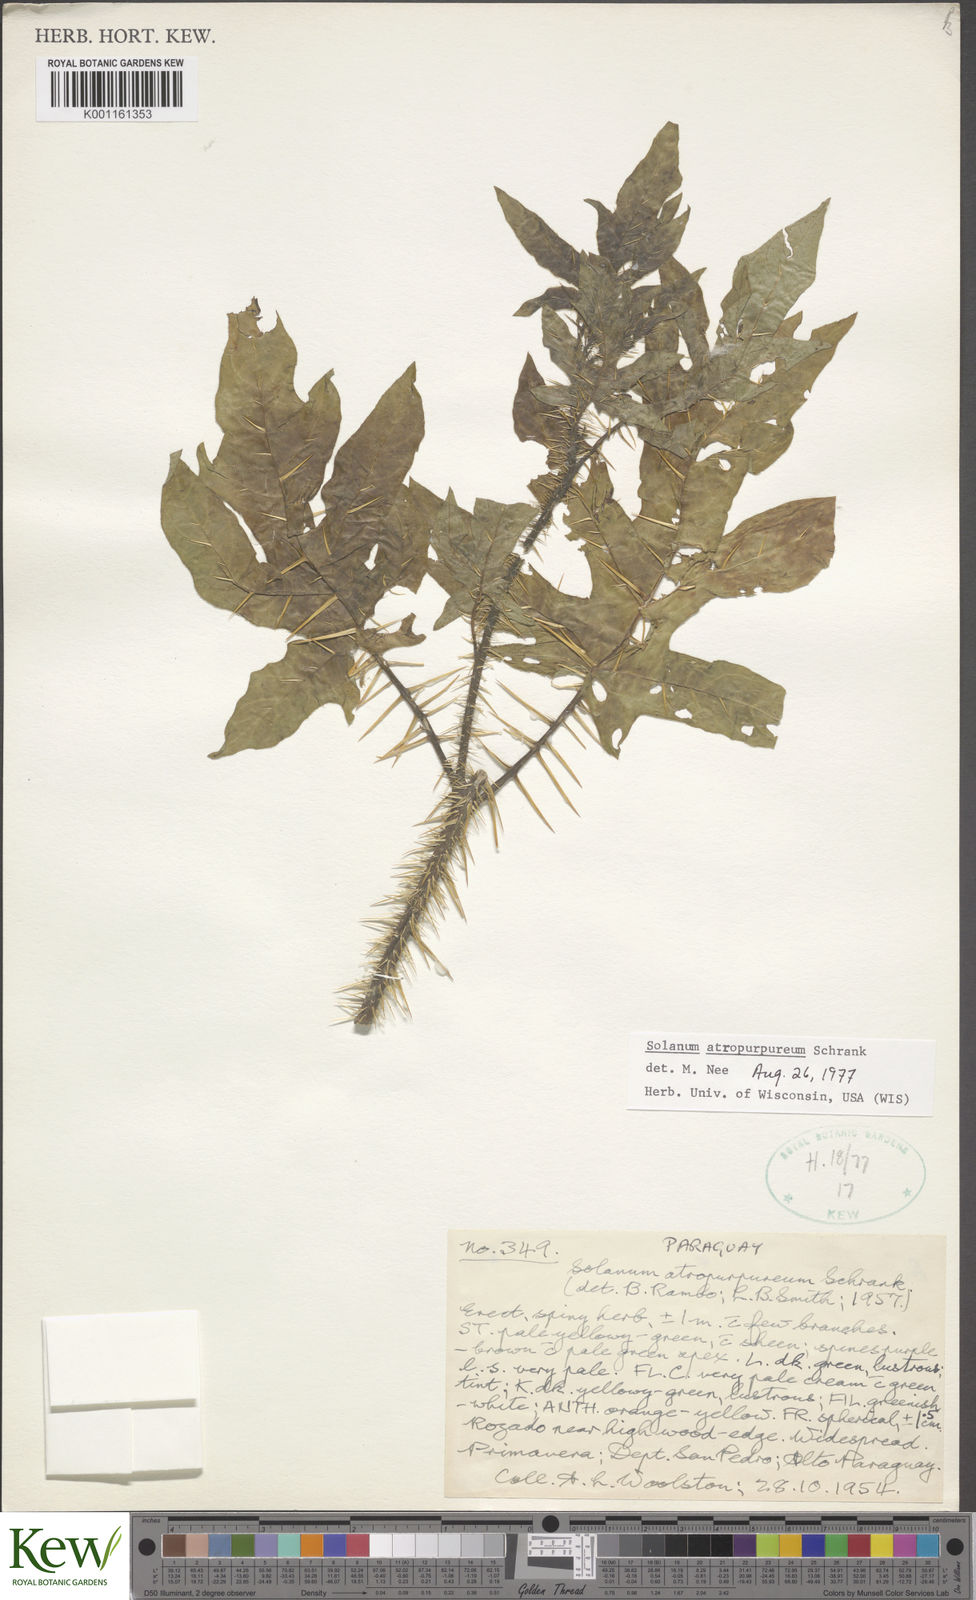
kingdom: Plantae
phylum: Tracheophyta
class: Magnoliopsida
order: Solanales
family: Solanaceae
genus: Solanum
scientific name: Solanum atropurpureum
